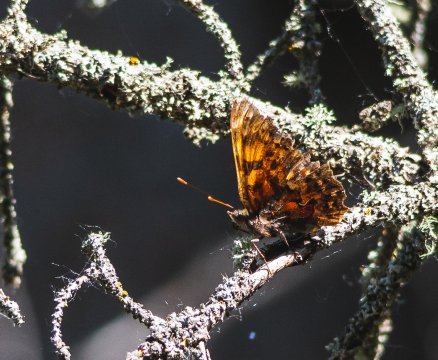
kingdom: Animalia
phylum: Arthropoda
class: Insecta
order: Lepidoptera
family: Nymphalidae
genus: Polygonia
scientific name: Polygonia satyrus
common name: Satyr Comma
